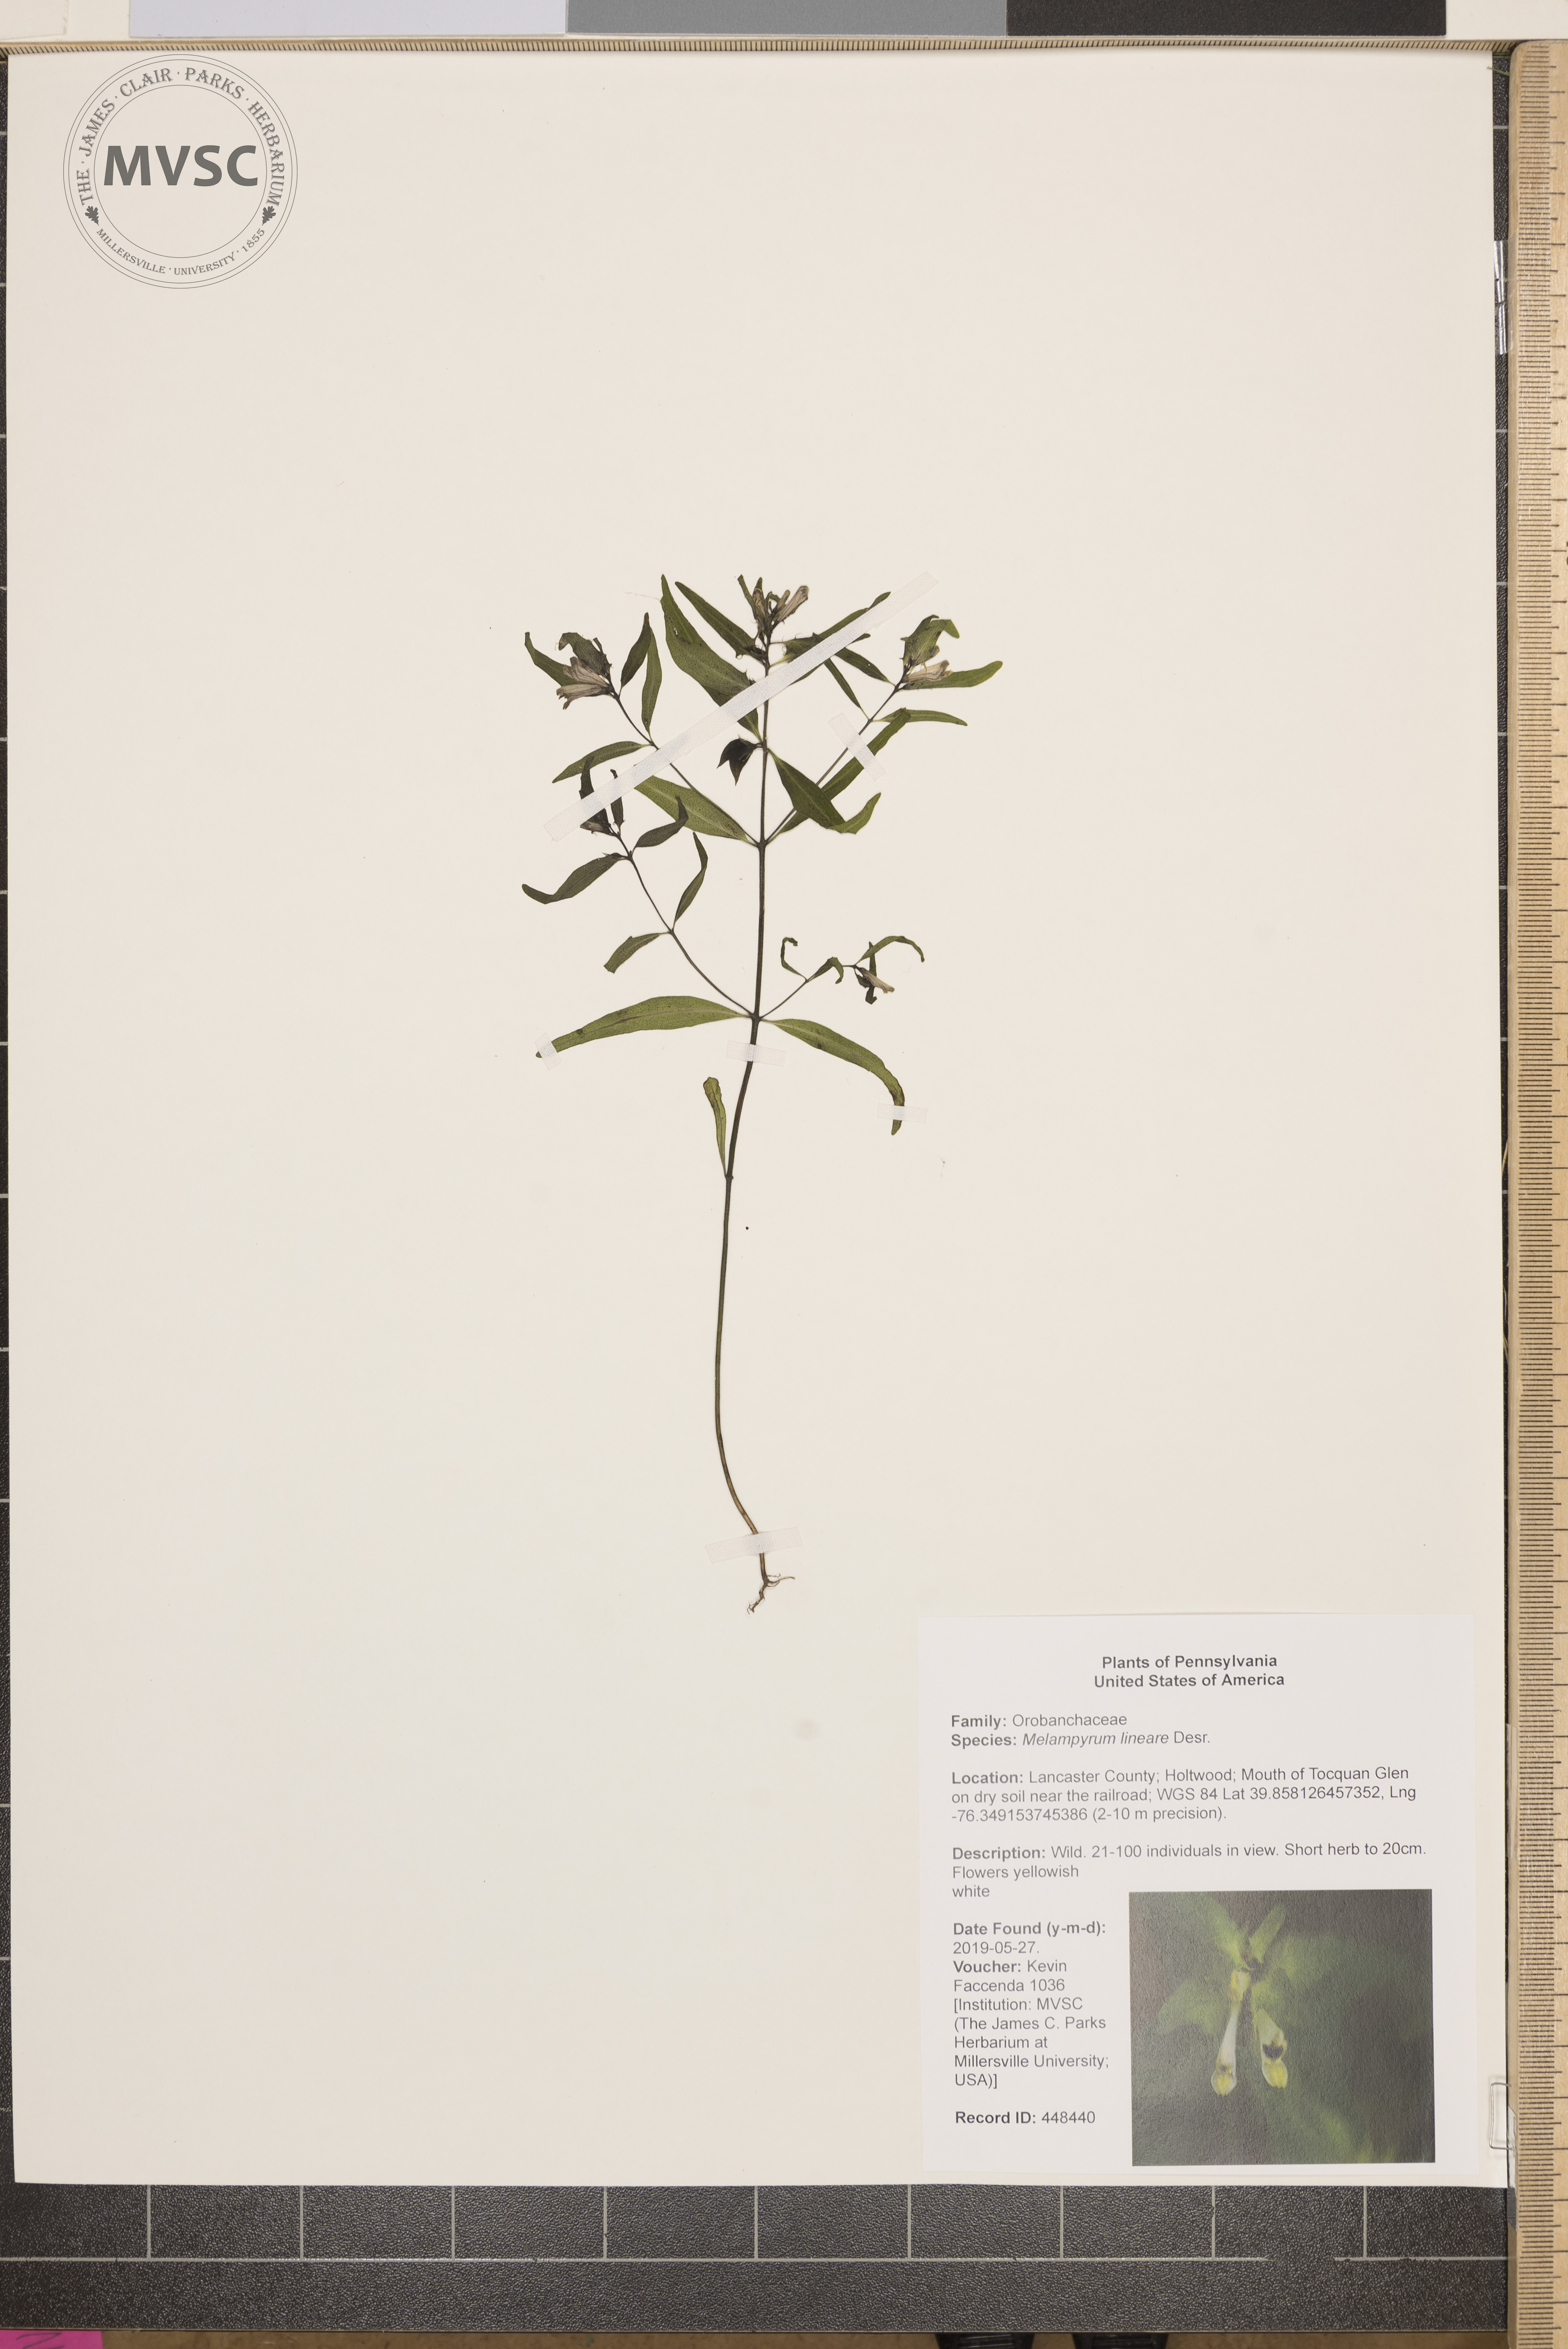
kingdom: Plantae
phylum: Tracheophyta
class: Magnoliopsida
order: Lamiales
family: Orobanchaceae
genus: Melampyrum
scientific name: Melampyrum lineare
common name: American cow-wheat
